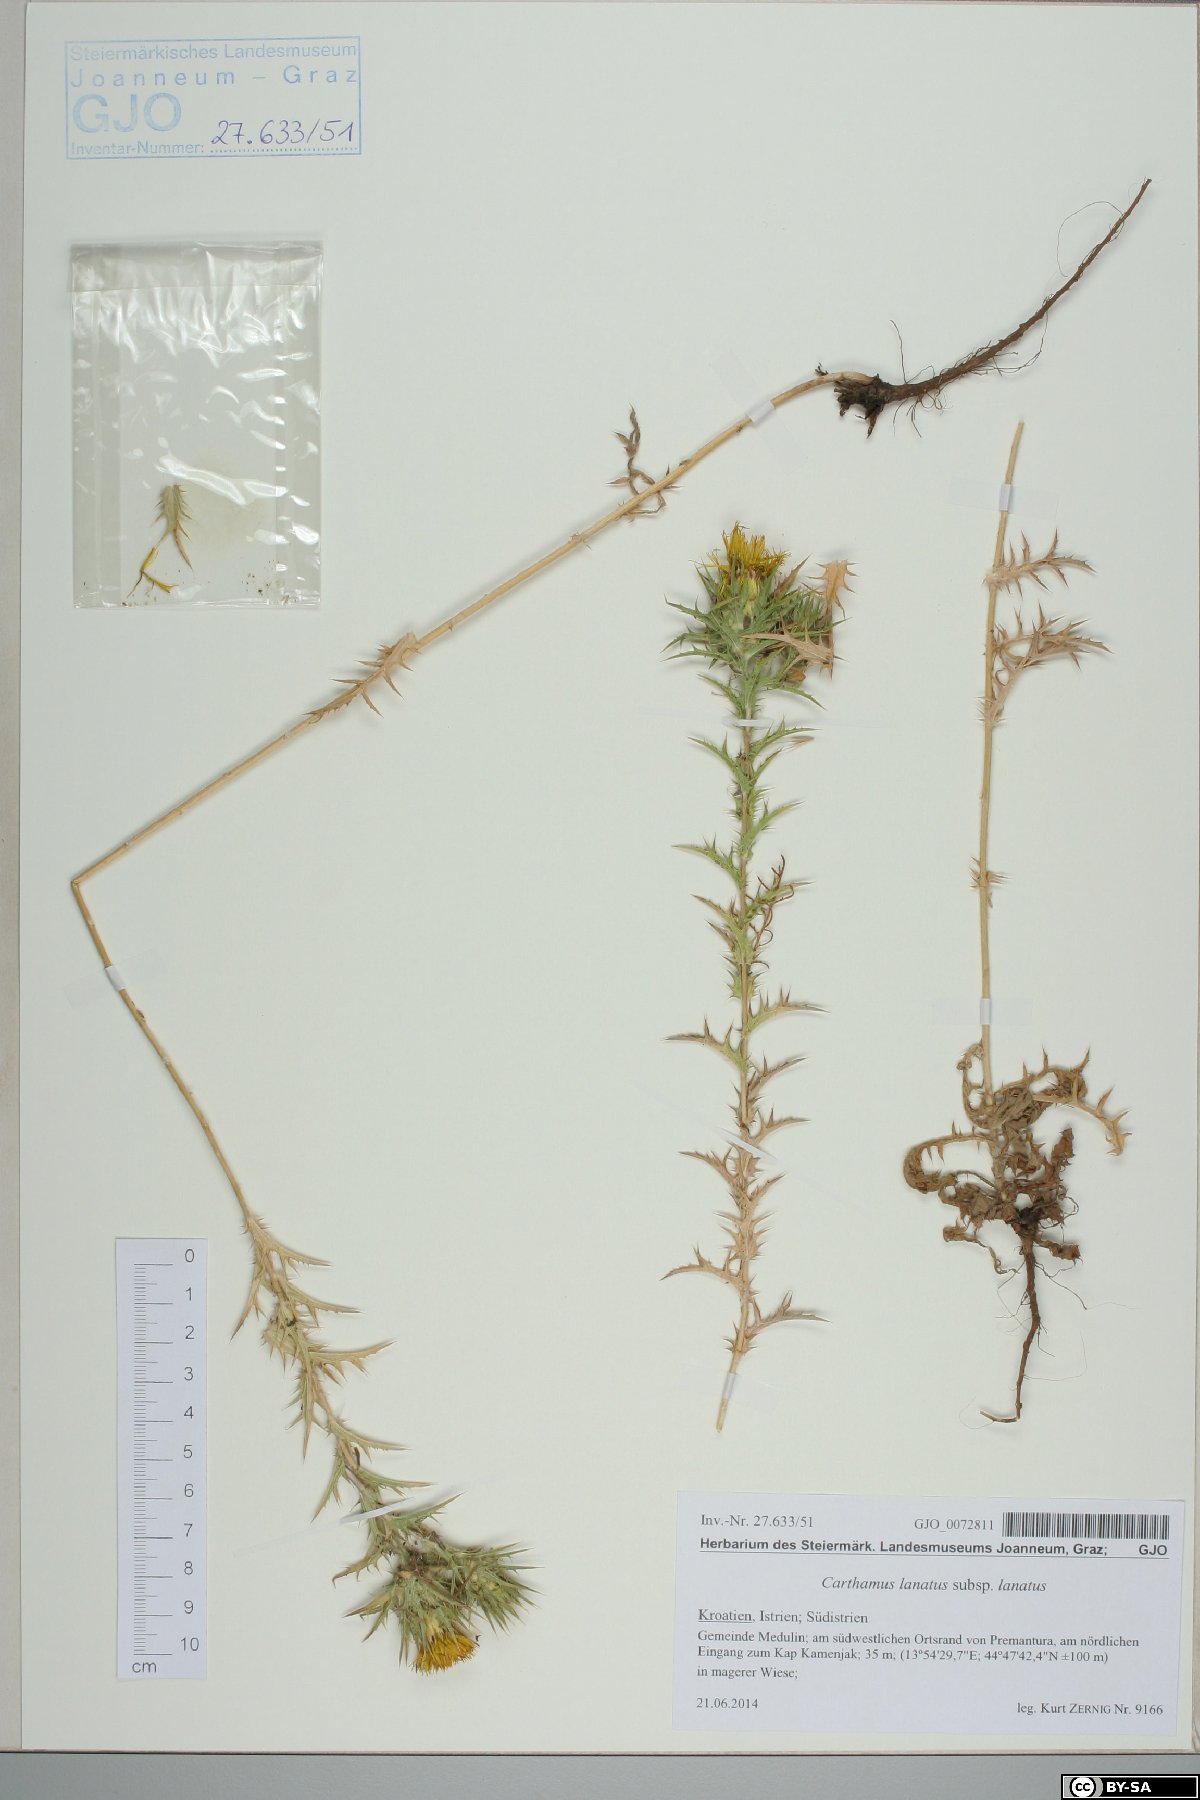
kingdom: Plantae
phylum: Tracheophyta
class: Magnoliopsida
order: Asterales
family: Asteraceae
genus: Carthamus
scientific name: Carthamus lanatus
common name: Downy safflower
